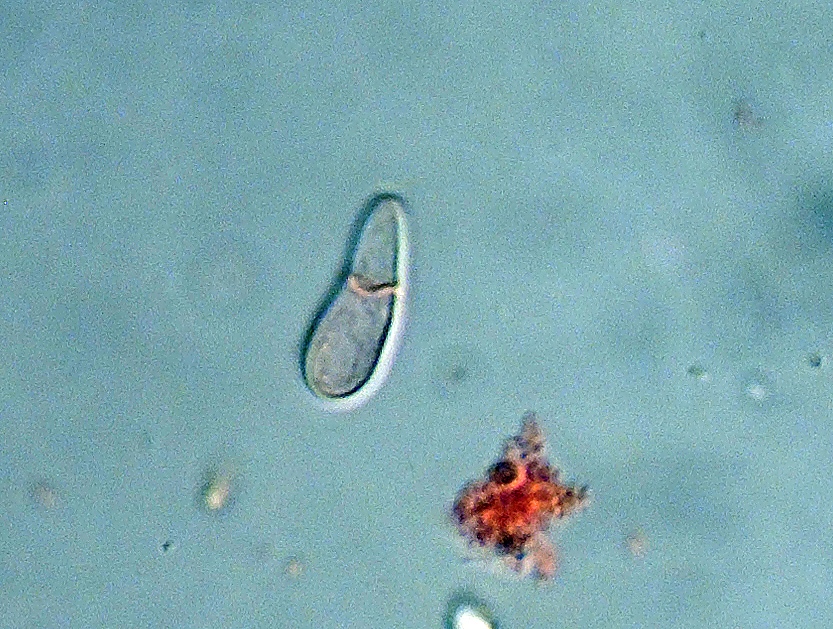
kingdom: Fungi
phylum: Ascomycota
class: Leotiomycetes
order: Helotiales
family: Drepanopezizaceae
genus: Drepanopeziza
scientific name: Drepanopeziza castagnei
